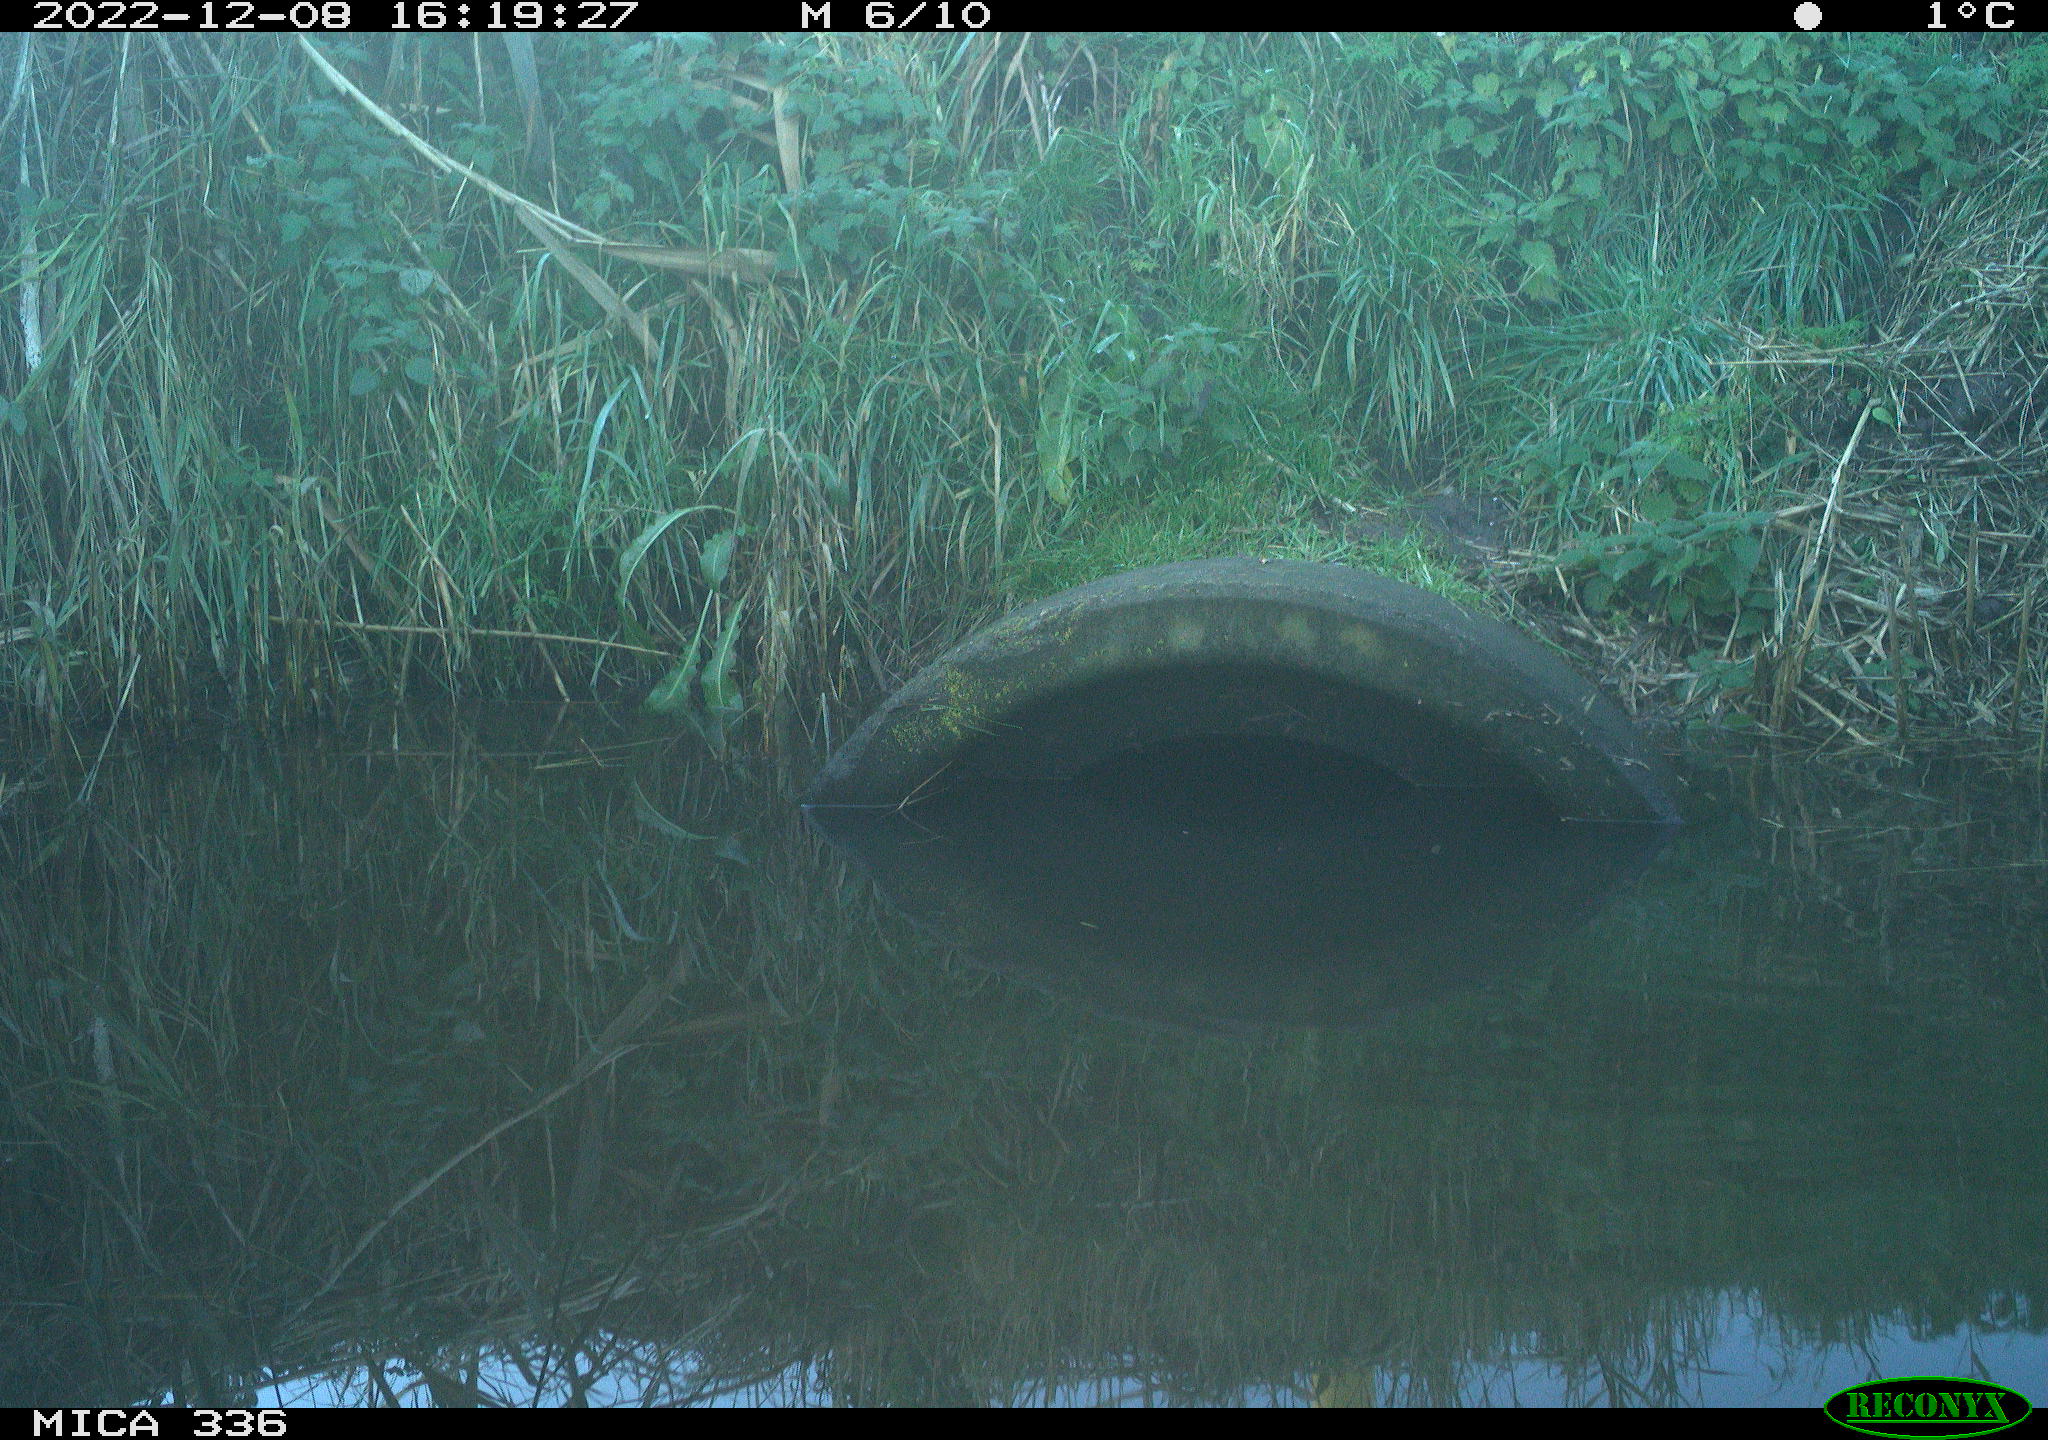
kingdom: Animalia
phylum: Chordata
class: Aves
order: Gruiformes
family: Rallidae
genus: Gallinula
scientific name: Gallinula chloropus
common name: Common moorhen
